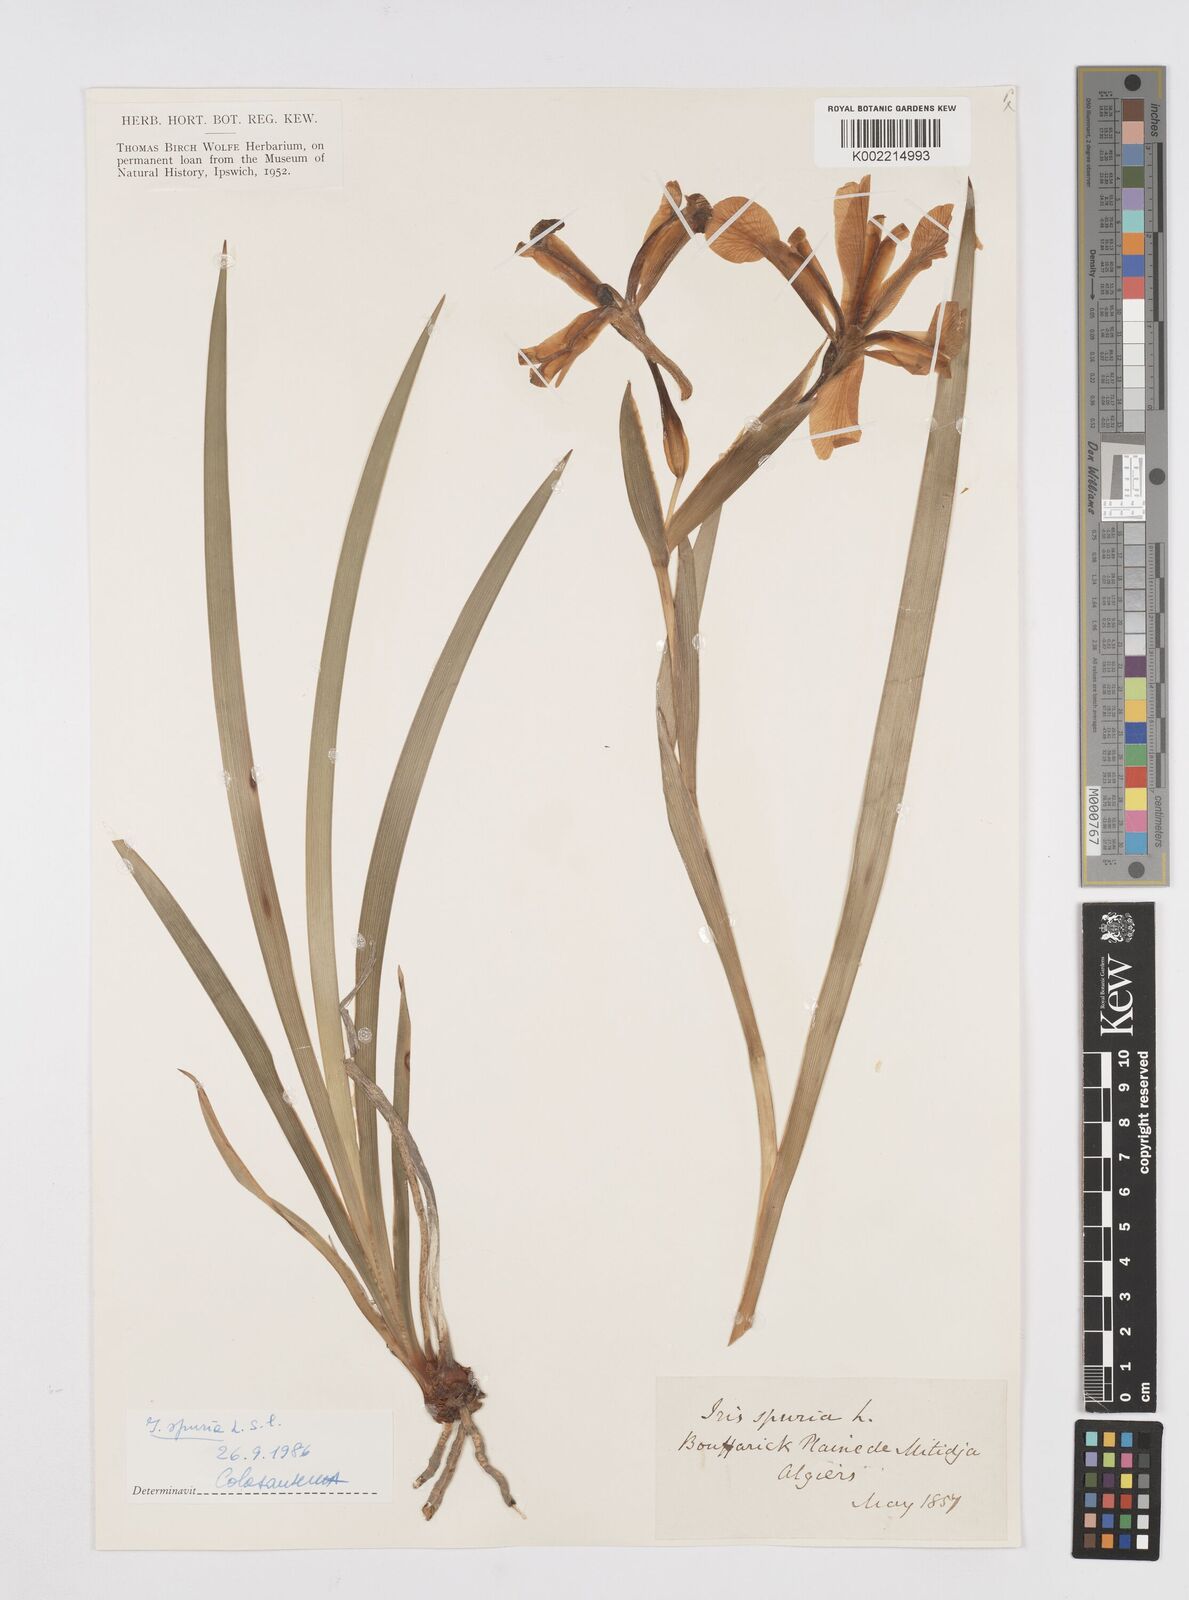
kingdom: Plantae
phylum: Tracheophyta
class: Liliopsida
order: Asparagales
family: Iridaceae
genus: Iris
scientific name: Iris spuria
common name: Blue iris
